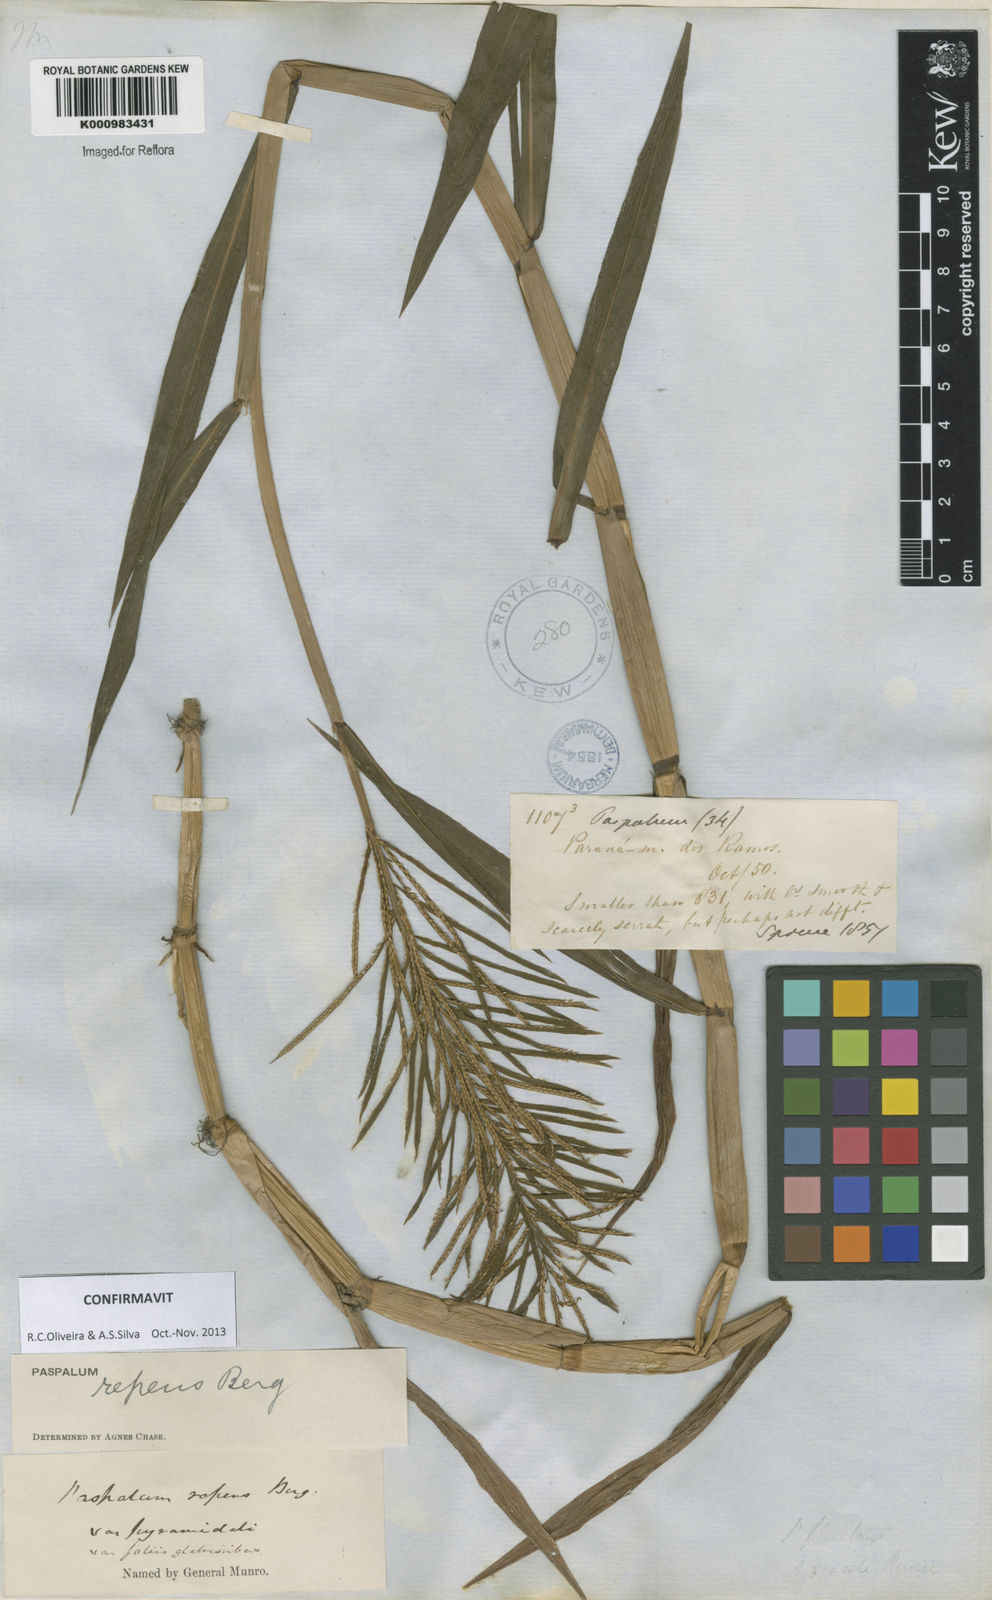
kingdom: Plantae
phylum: Tracheophyta
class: Liliopsida
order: Poales
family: Poaceae
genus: Paspalum
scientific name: Paspalum repens
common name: Water paspalum
